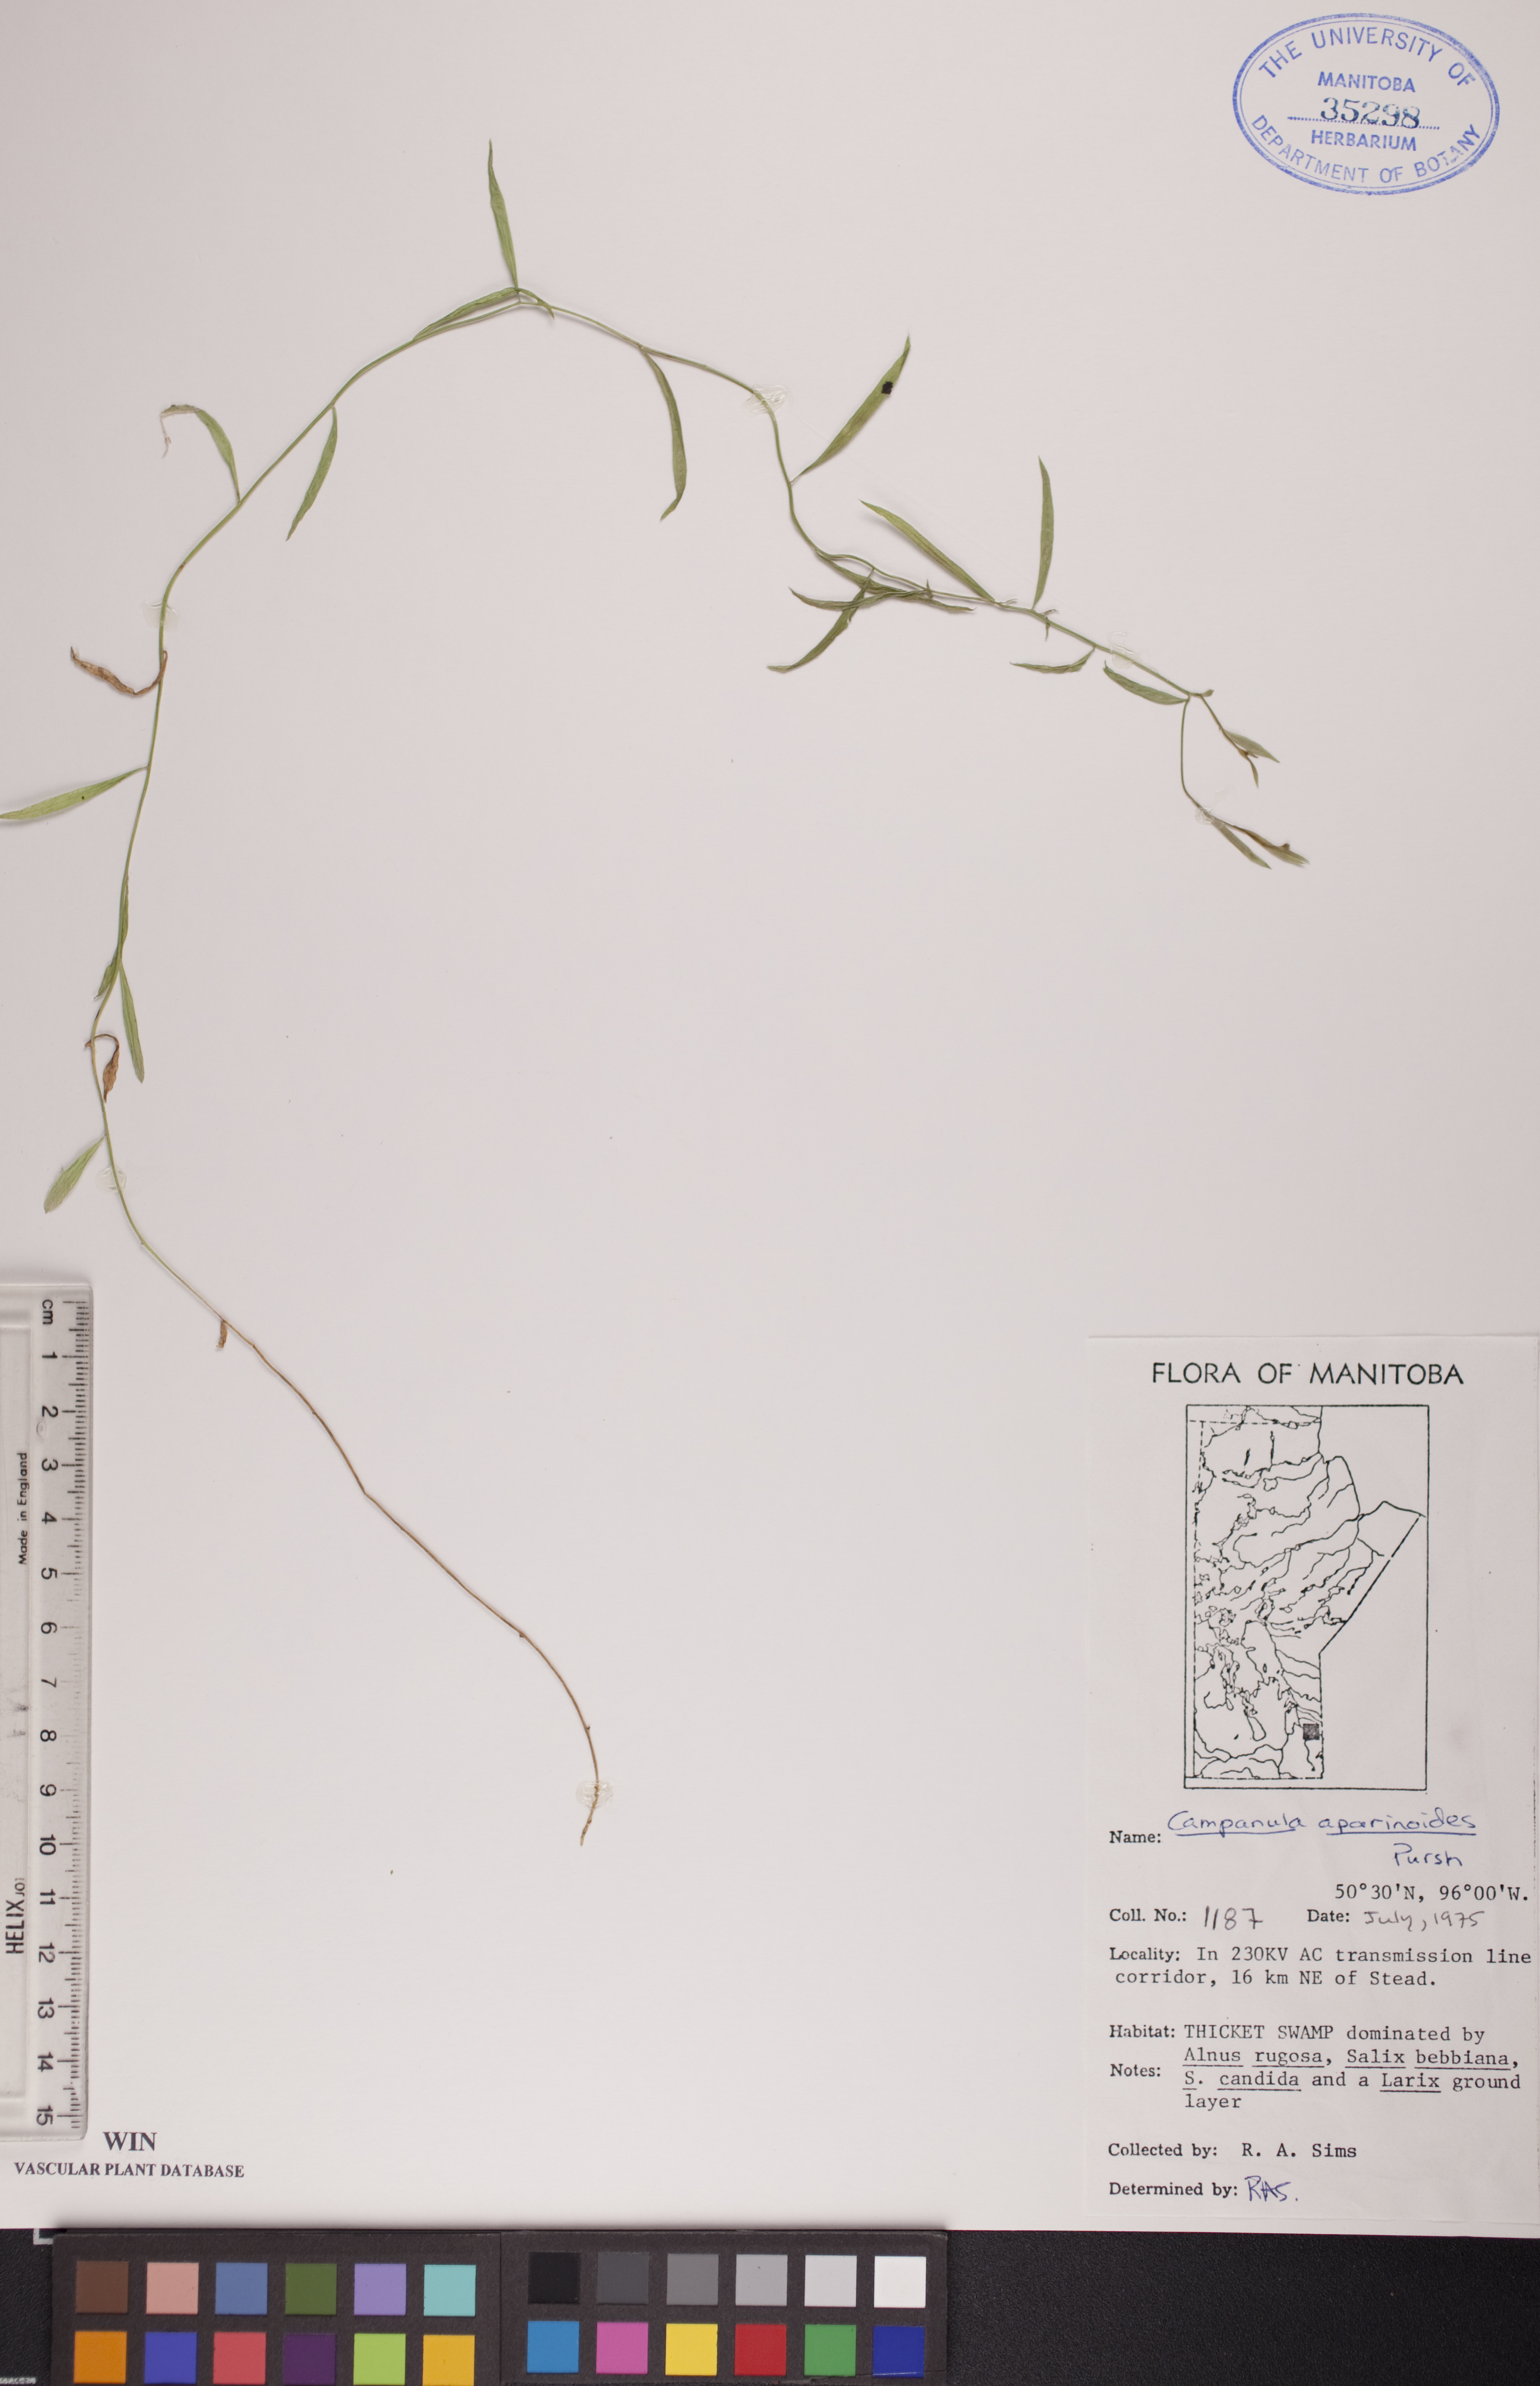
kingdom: Plantae
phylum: Tracheophyta
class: Magnoliopsida
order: Asterales
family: Campanulaceae
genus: Palustricodon
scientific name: Palustricodon aparinoides
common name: Bedstraw bellflower
